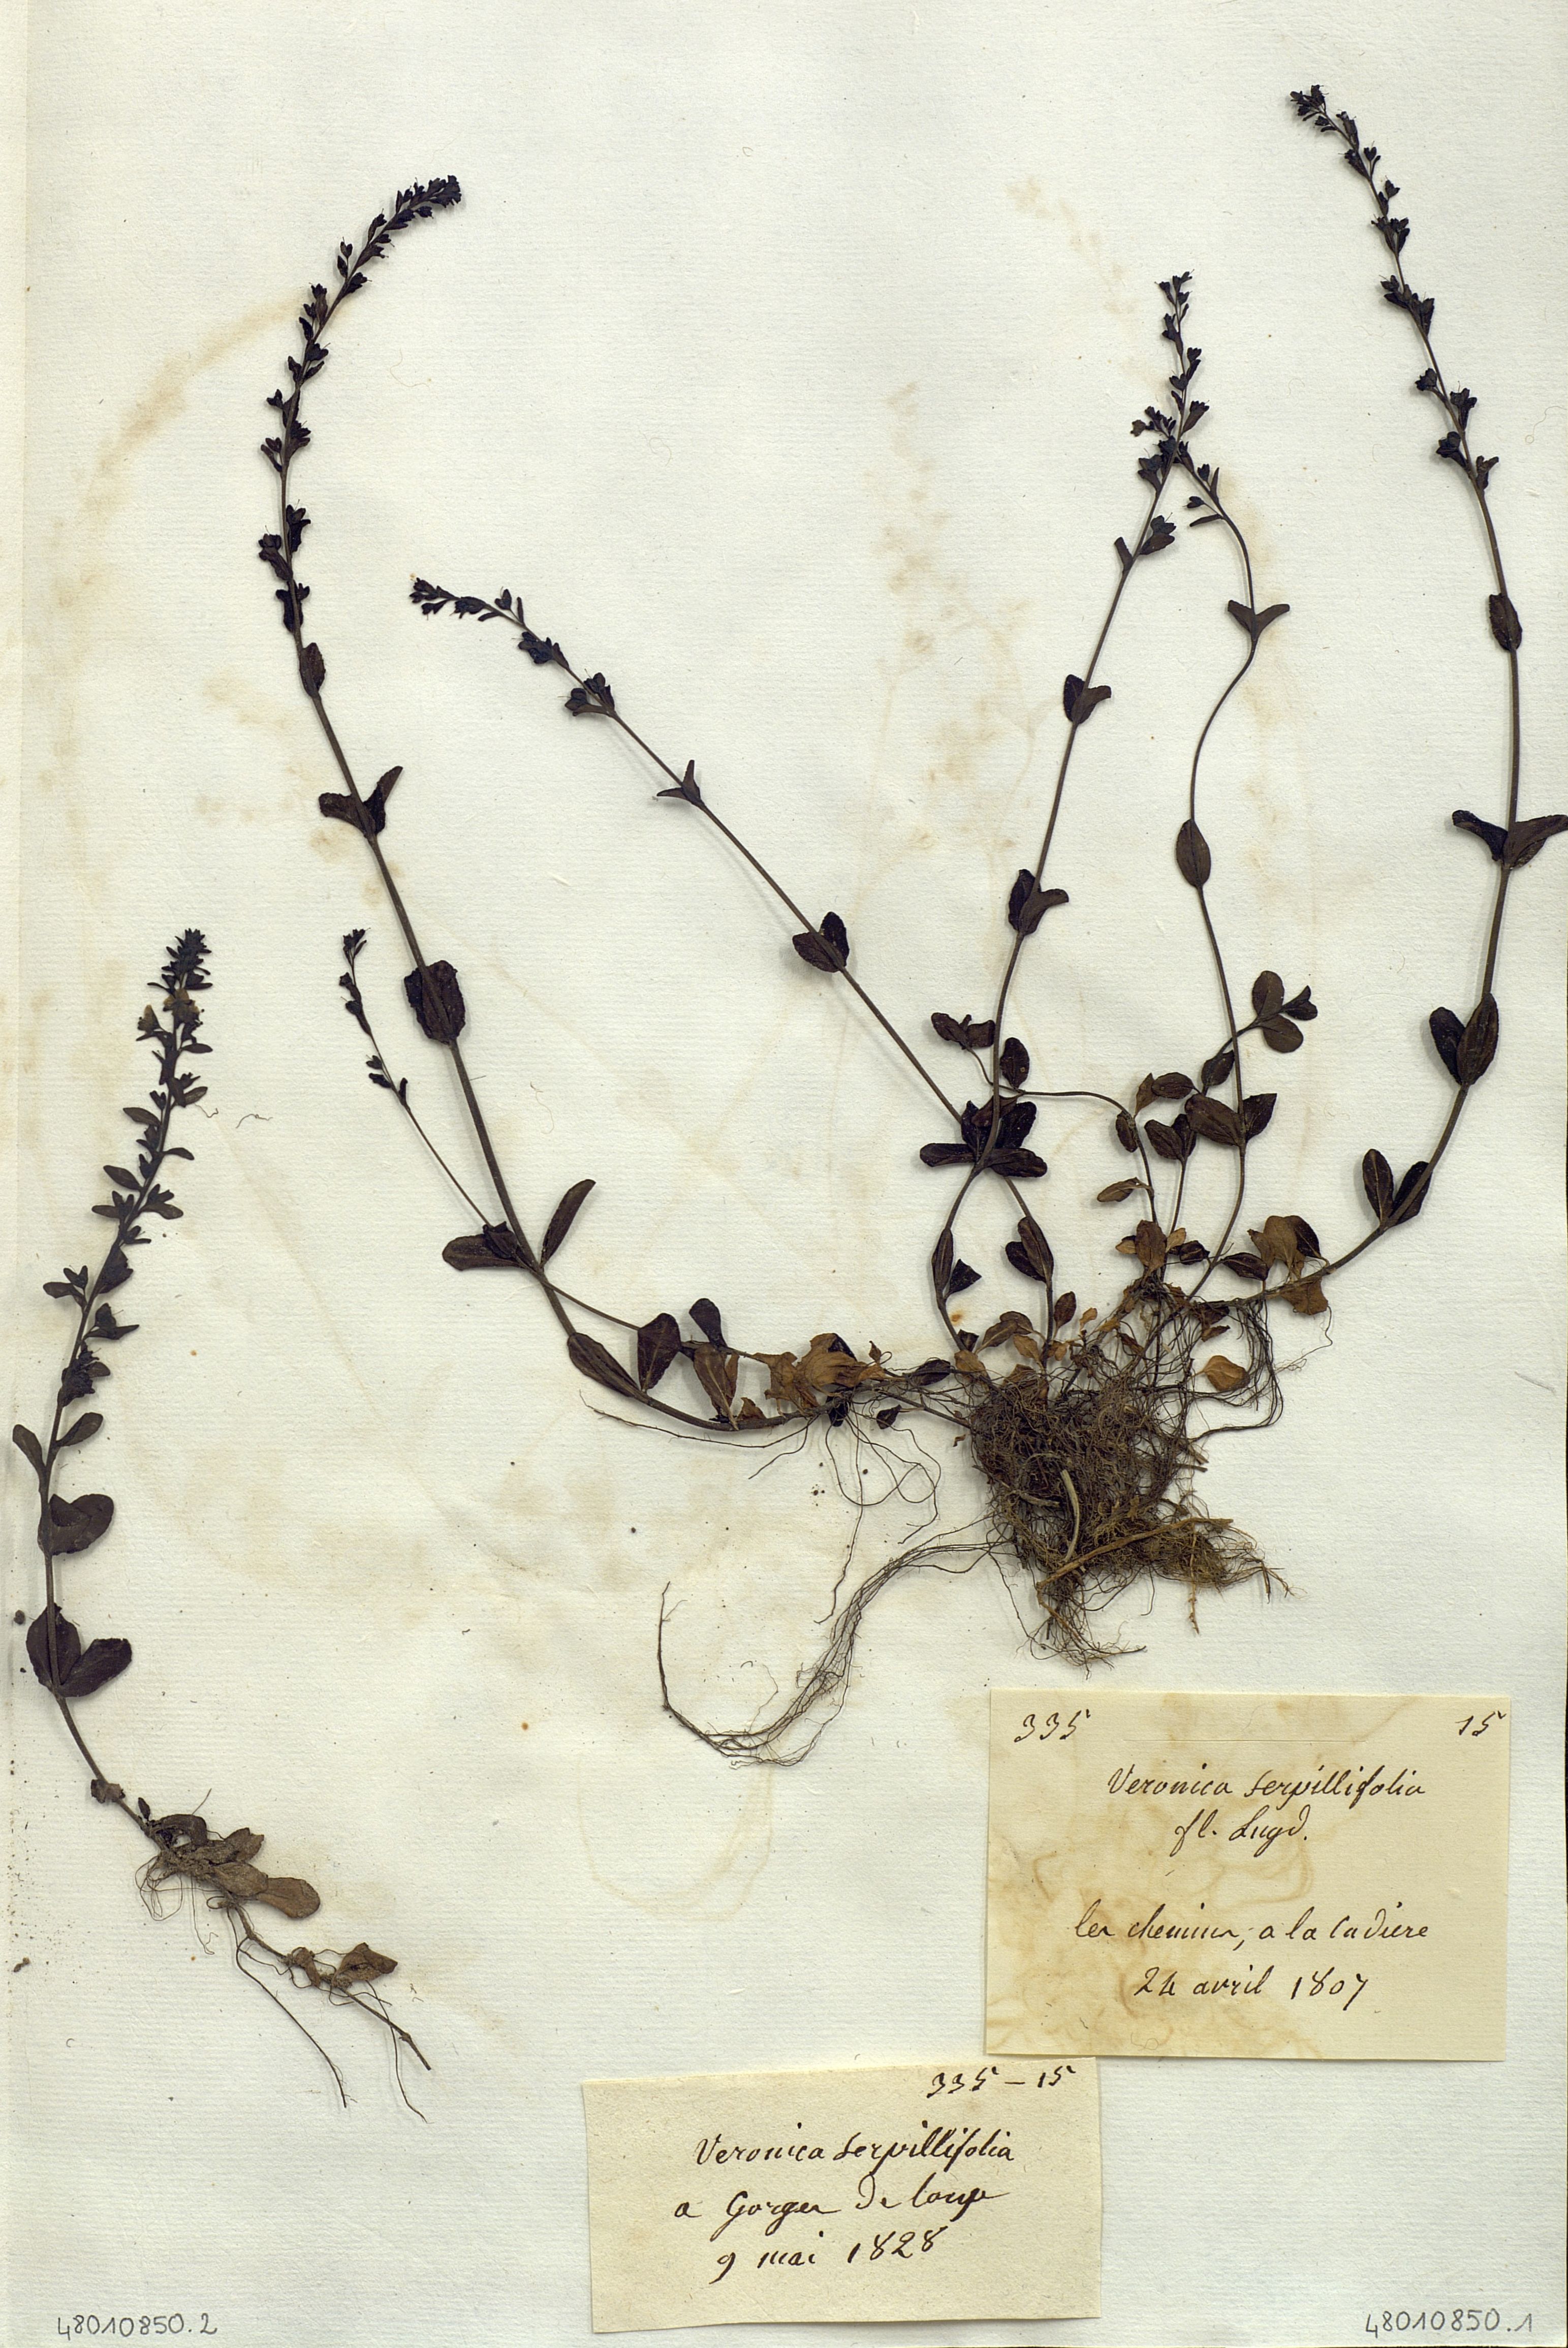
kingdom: Plantae
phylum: Tracheophyta
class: Magnoliopsida
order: Lamiales
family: Plantaginaceae
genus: Veronica
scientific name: Veronica serpyllifolia
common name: Thyme-leaved speedwell
